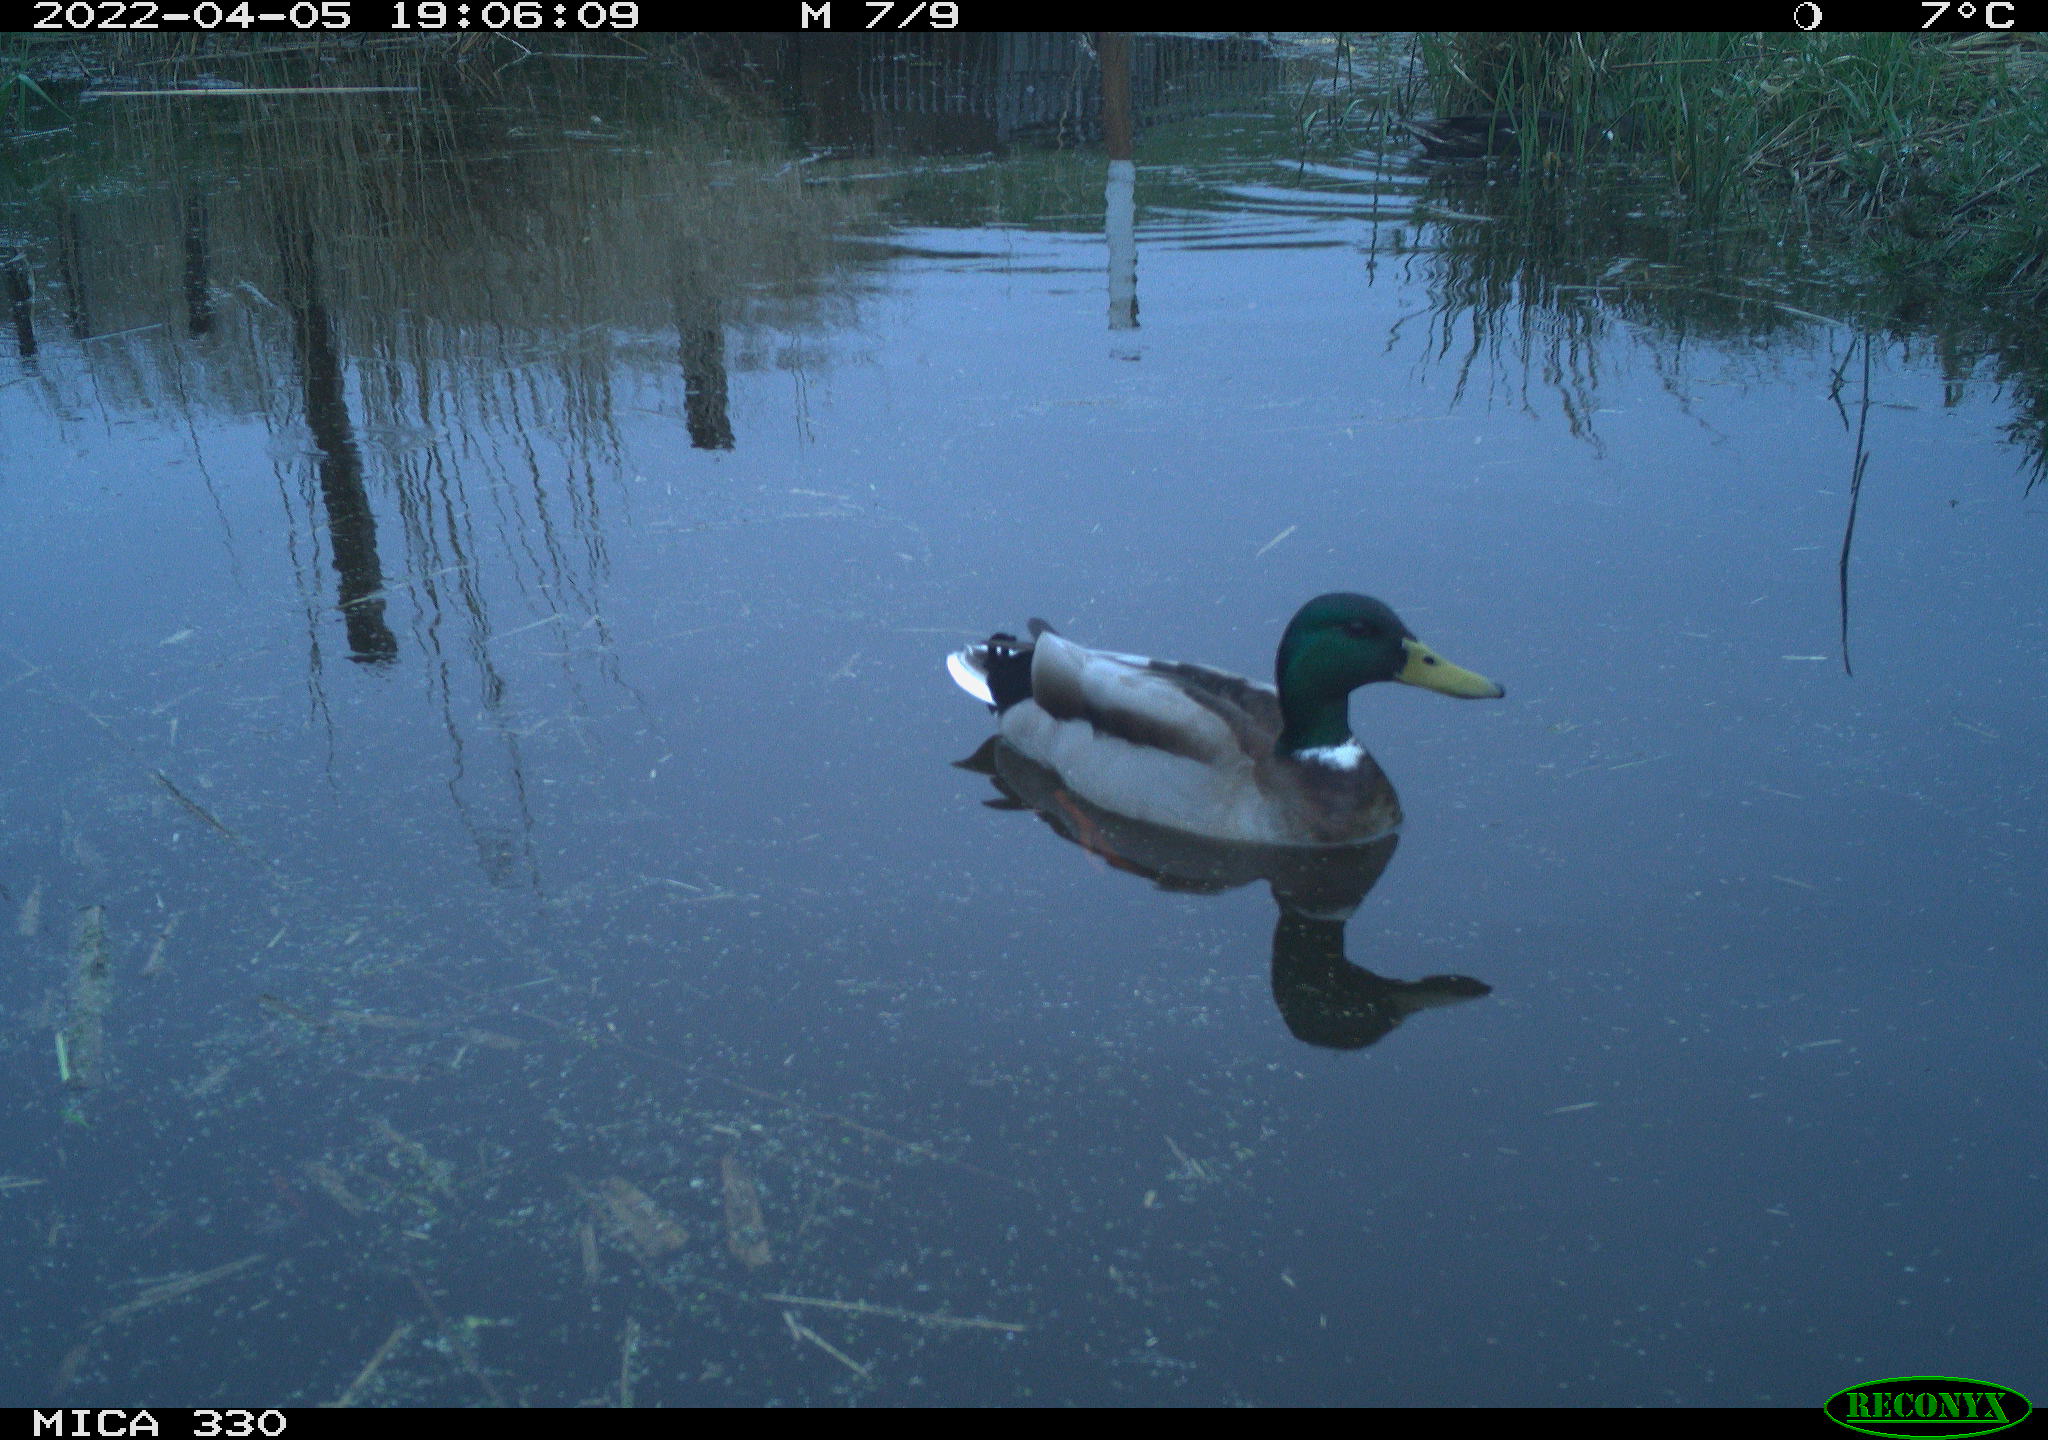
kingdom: Animalia
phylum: Chordata
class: Aves
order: Anseriformes
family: Anatidae
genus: Anas
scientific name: Anas platyrhynchos
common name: Mallard
